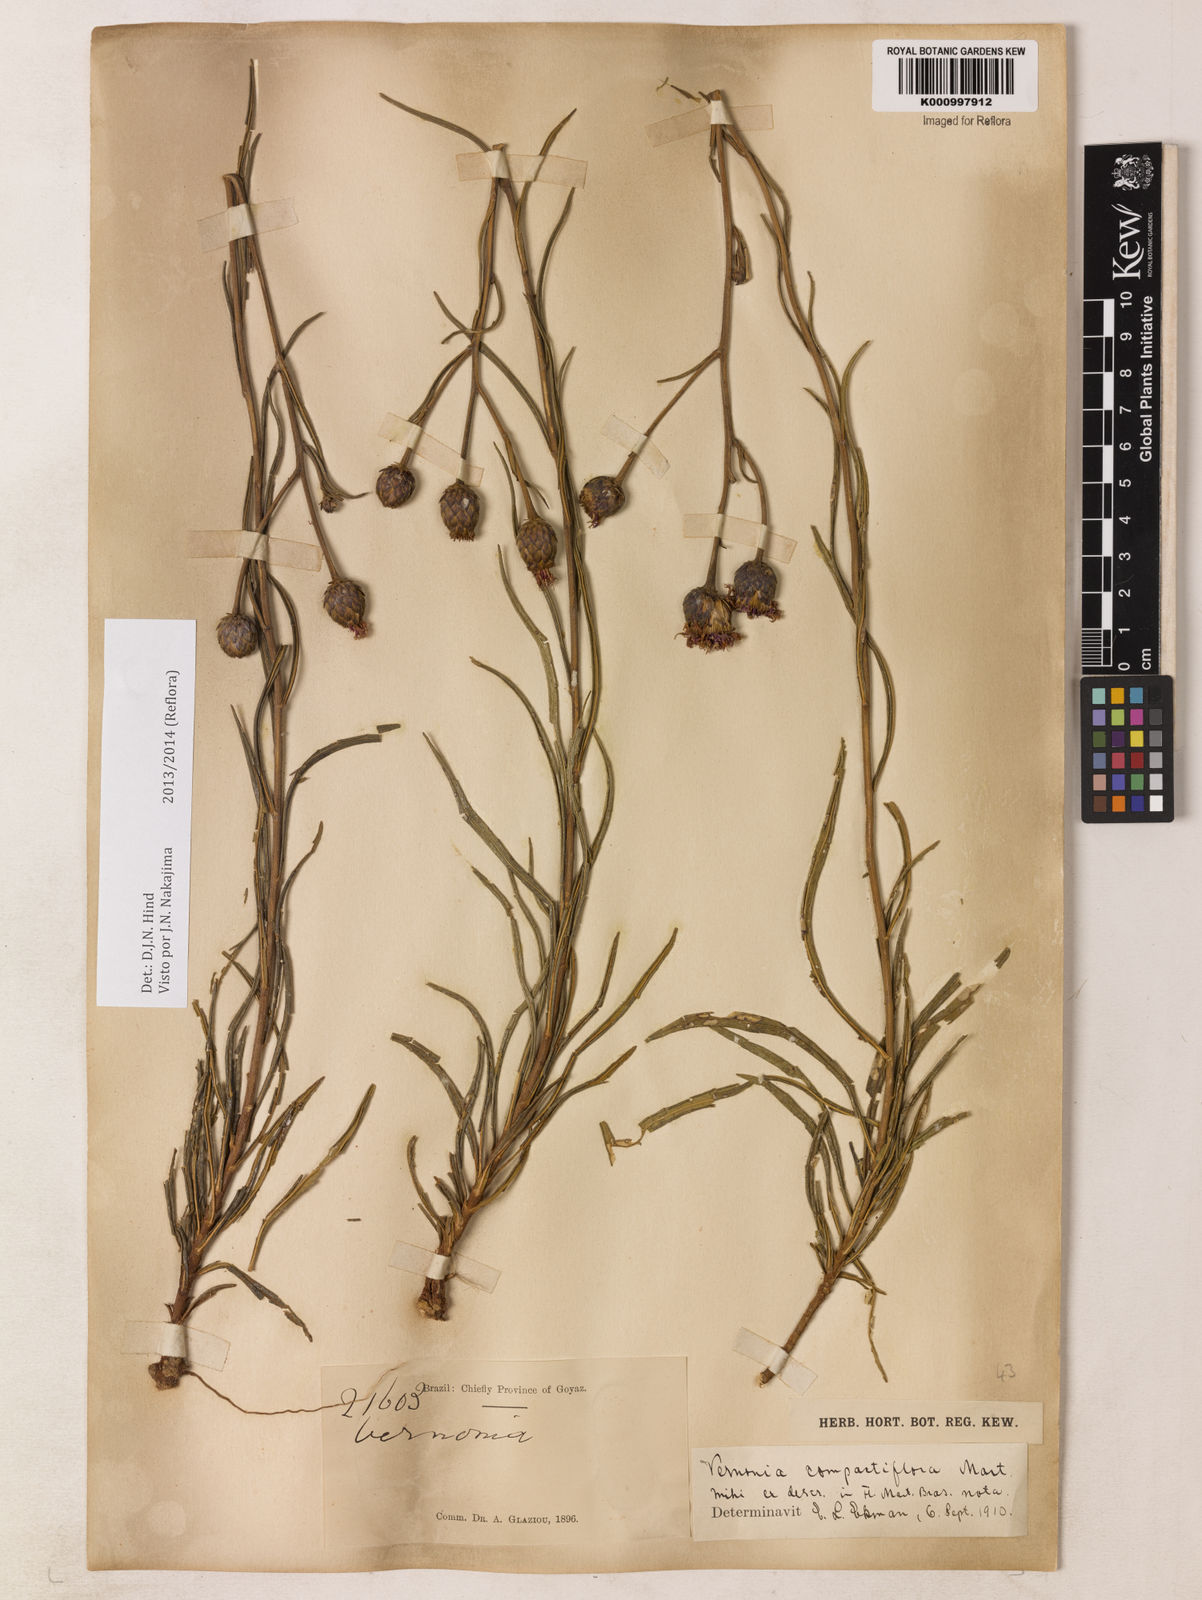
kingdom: Plantae
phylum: Tracheophyta
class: Magnoliopsida
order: Asterales
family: Asteraceae
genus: Lessingianthus
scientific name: Lessingianthus compactiflorus
